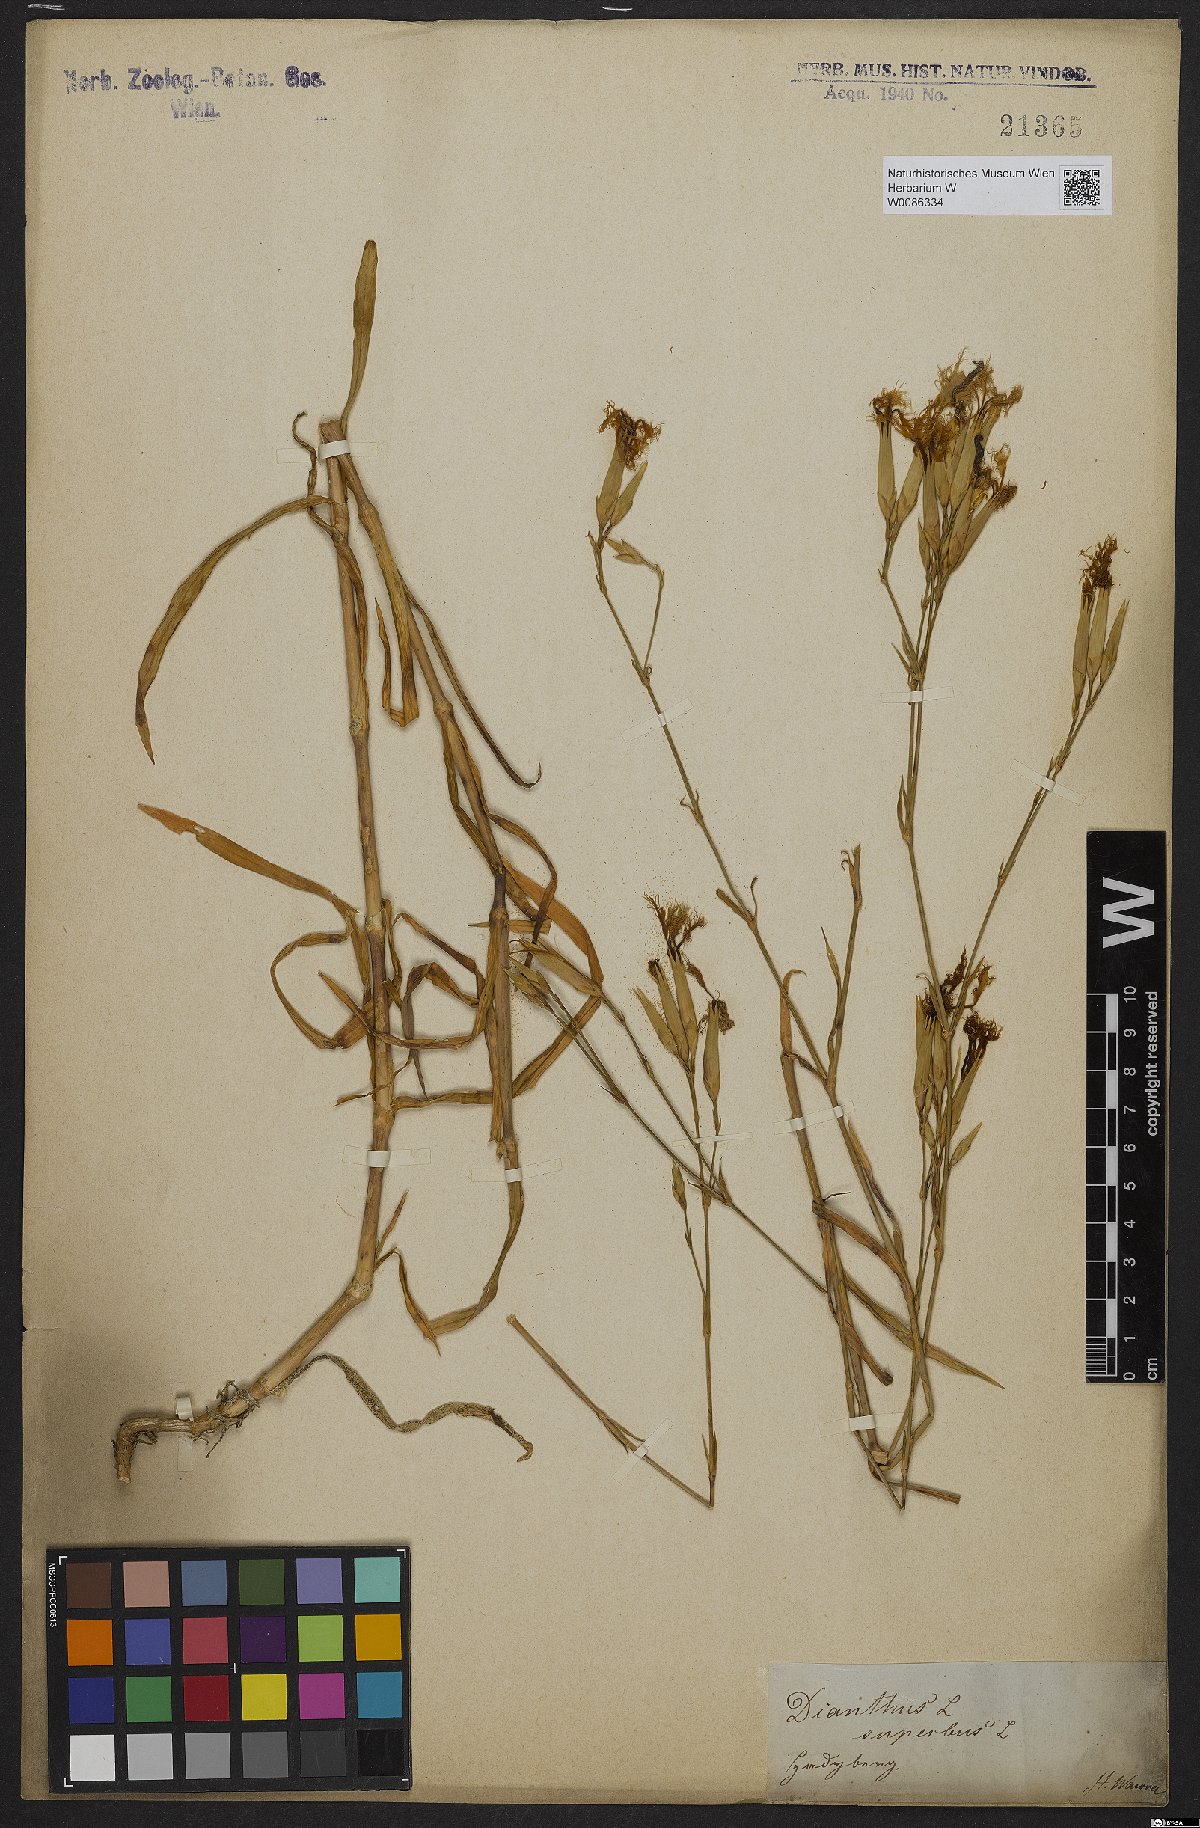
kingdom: Plantae
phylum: Tracheophyta
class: Magnoliopsida
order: Caryophyllales
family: Caryophyllaceae
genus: Dianthus
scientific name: Dianthus superbus
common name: Fringed pink
